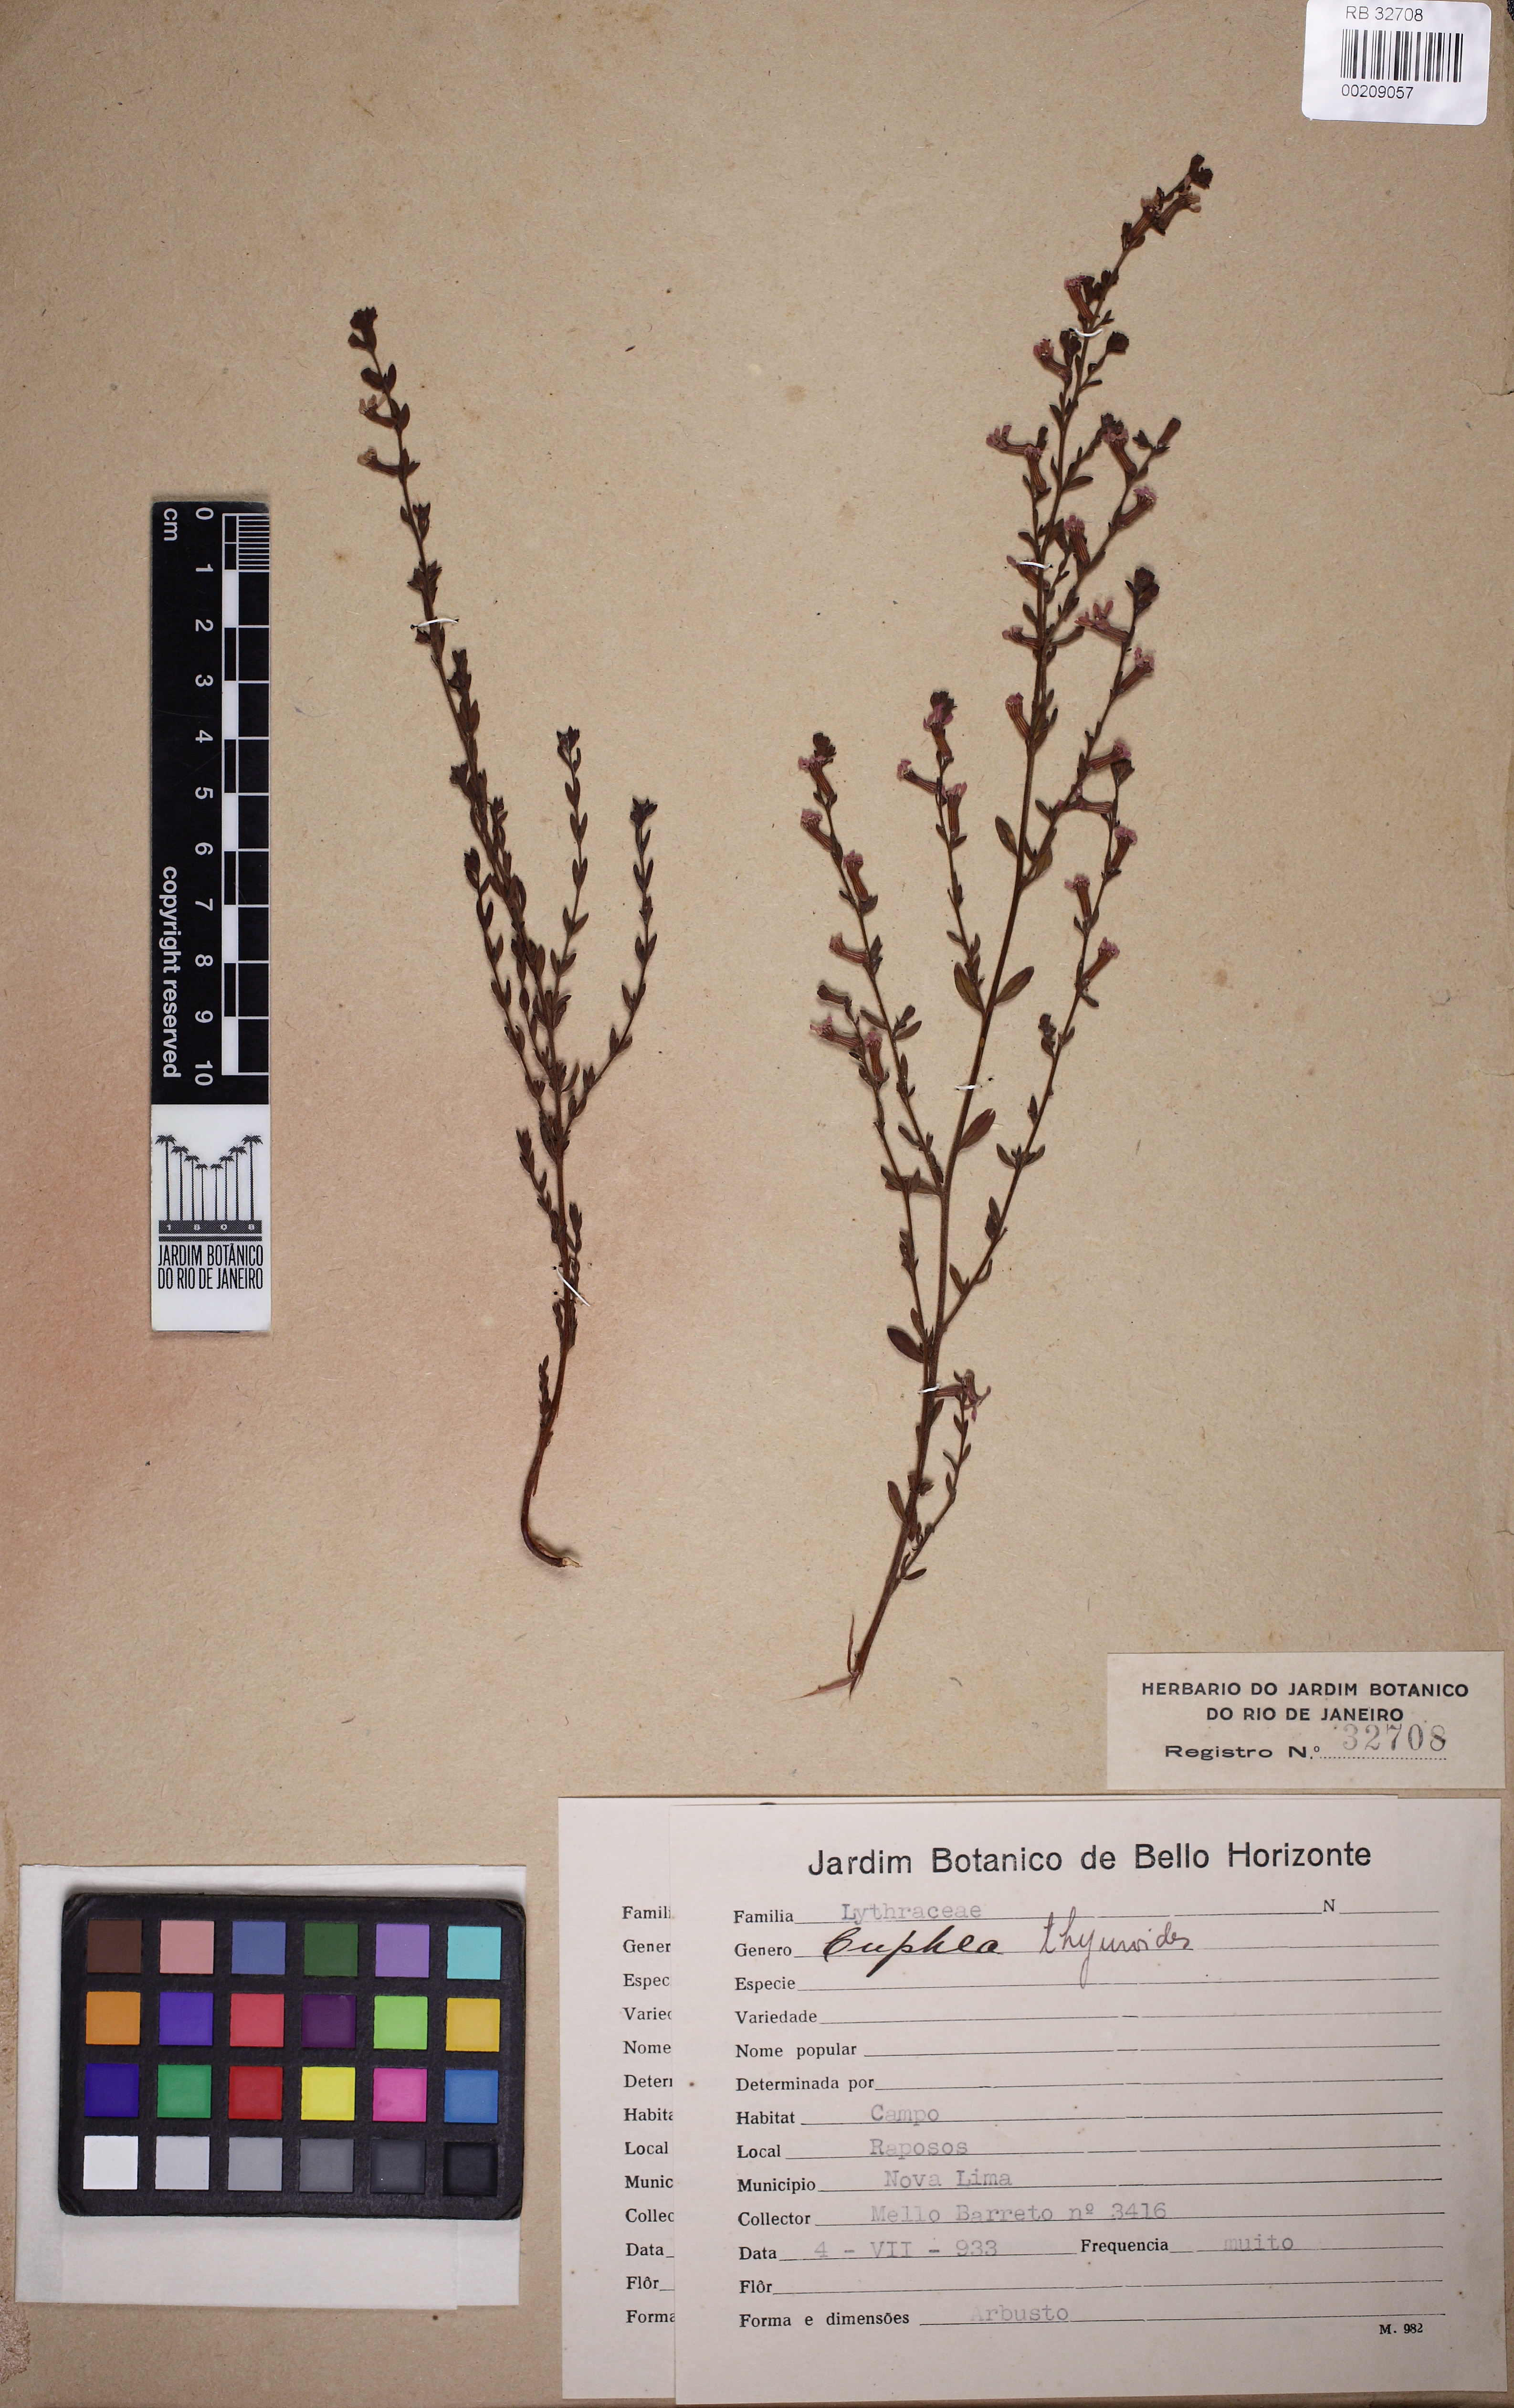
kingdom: Plantae
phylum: Tracheophyta
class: Magnoliopsida
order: Myrtales
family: Lythraceae
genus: Cuphea
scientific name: Cuphea thymoides
